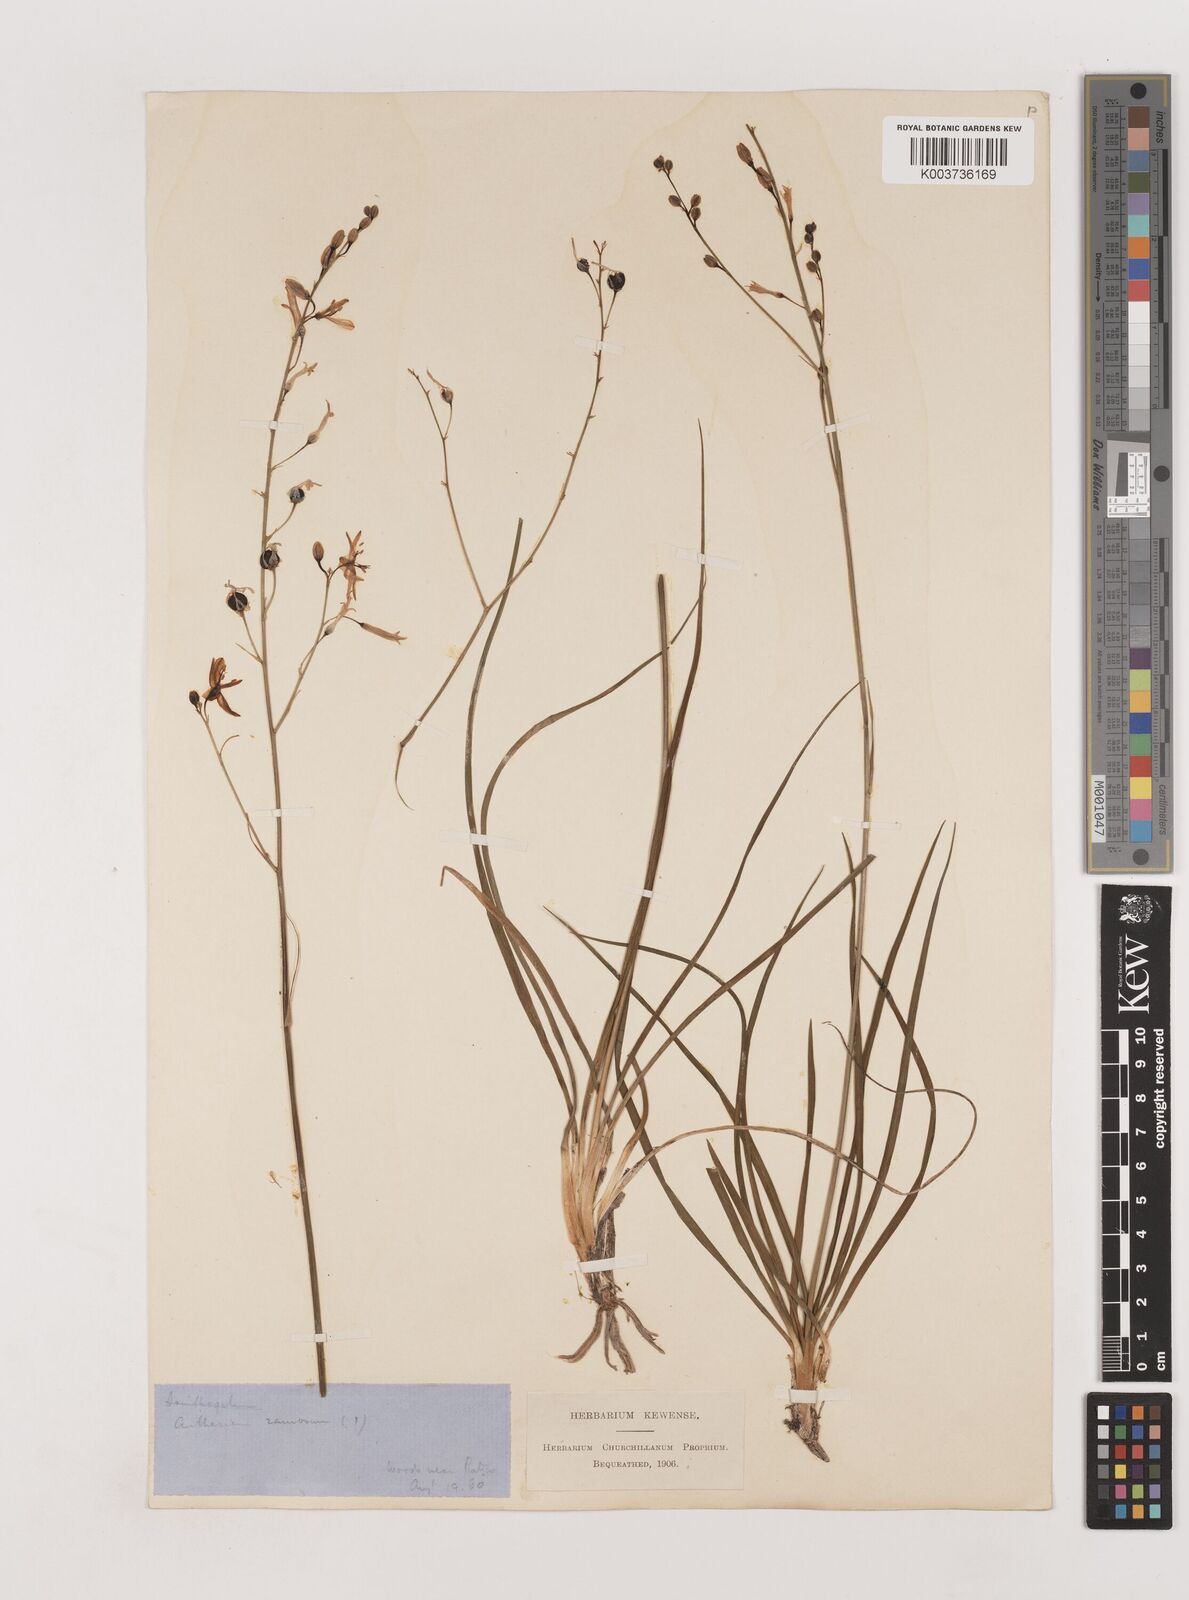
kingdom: Plantae
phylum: Tracheophyta
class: Liliopsida
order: Asparagales
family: Asparagaceae
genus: Anthericum
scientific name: Anthericum ramosum
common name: Branched st. bernard's-lily
